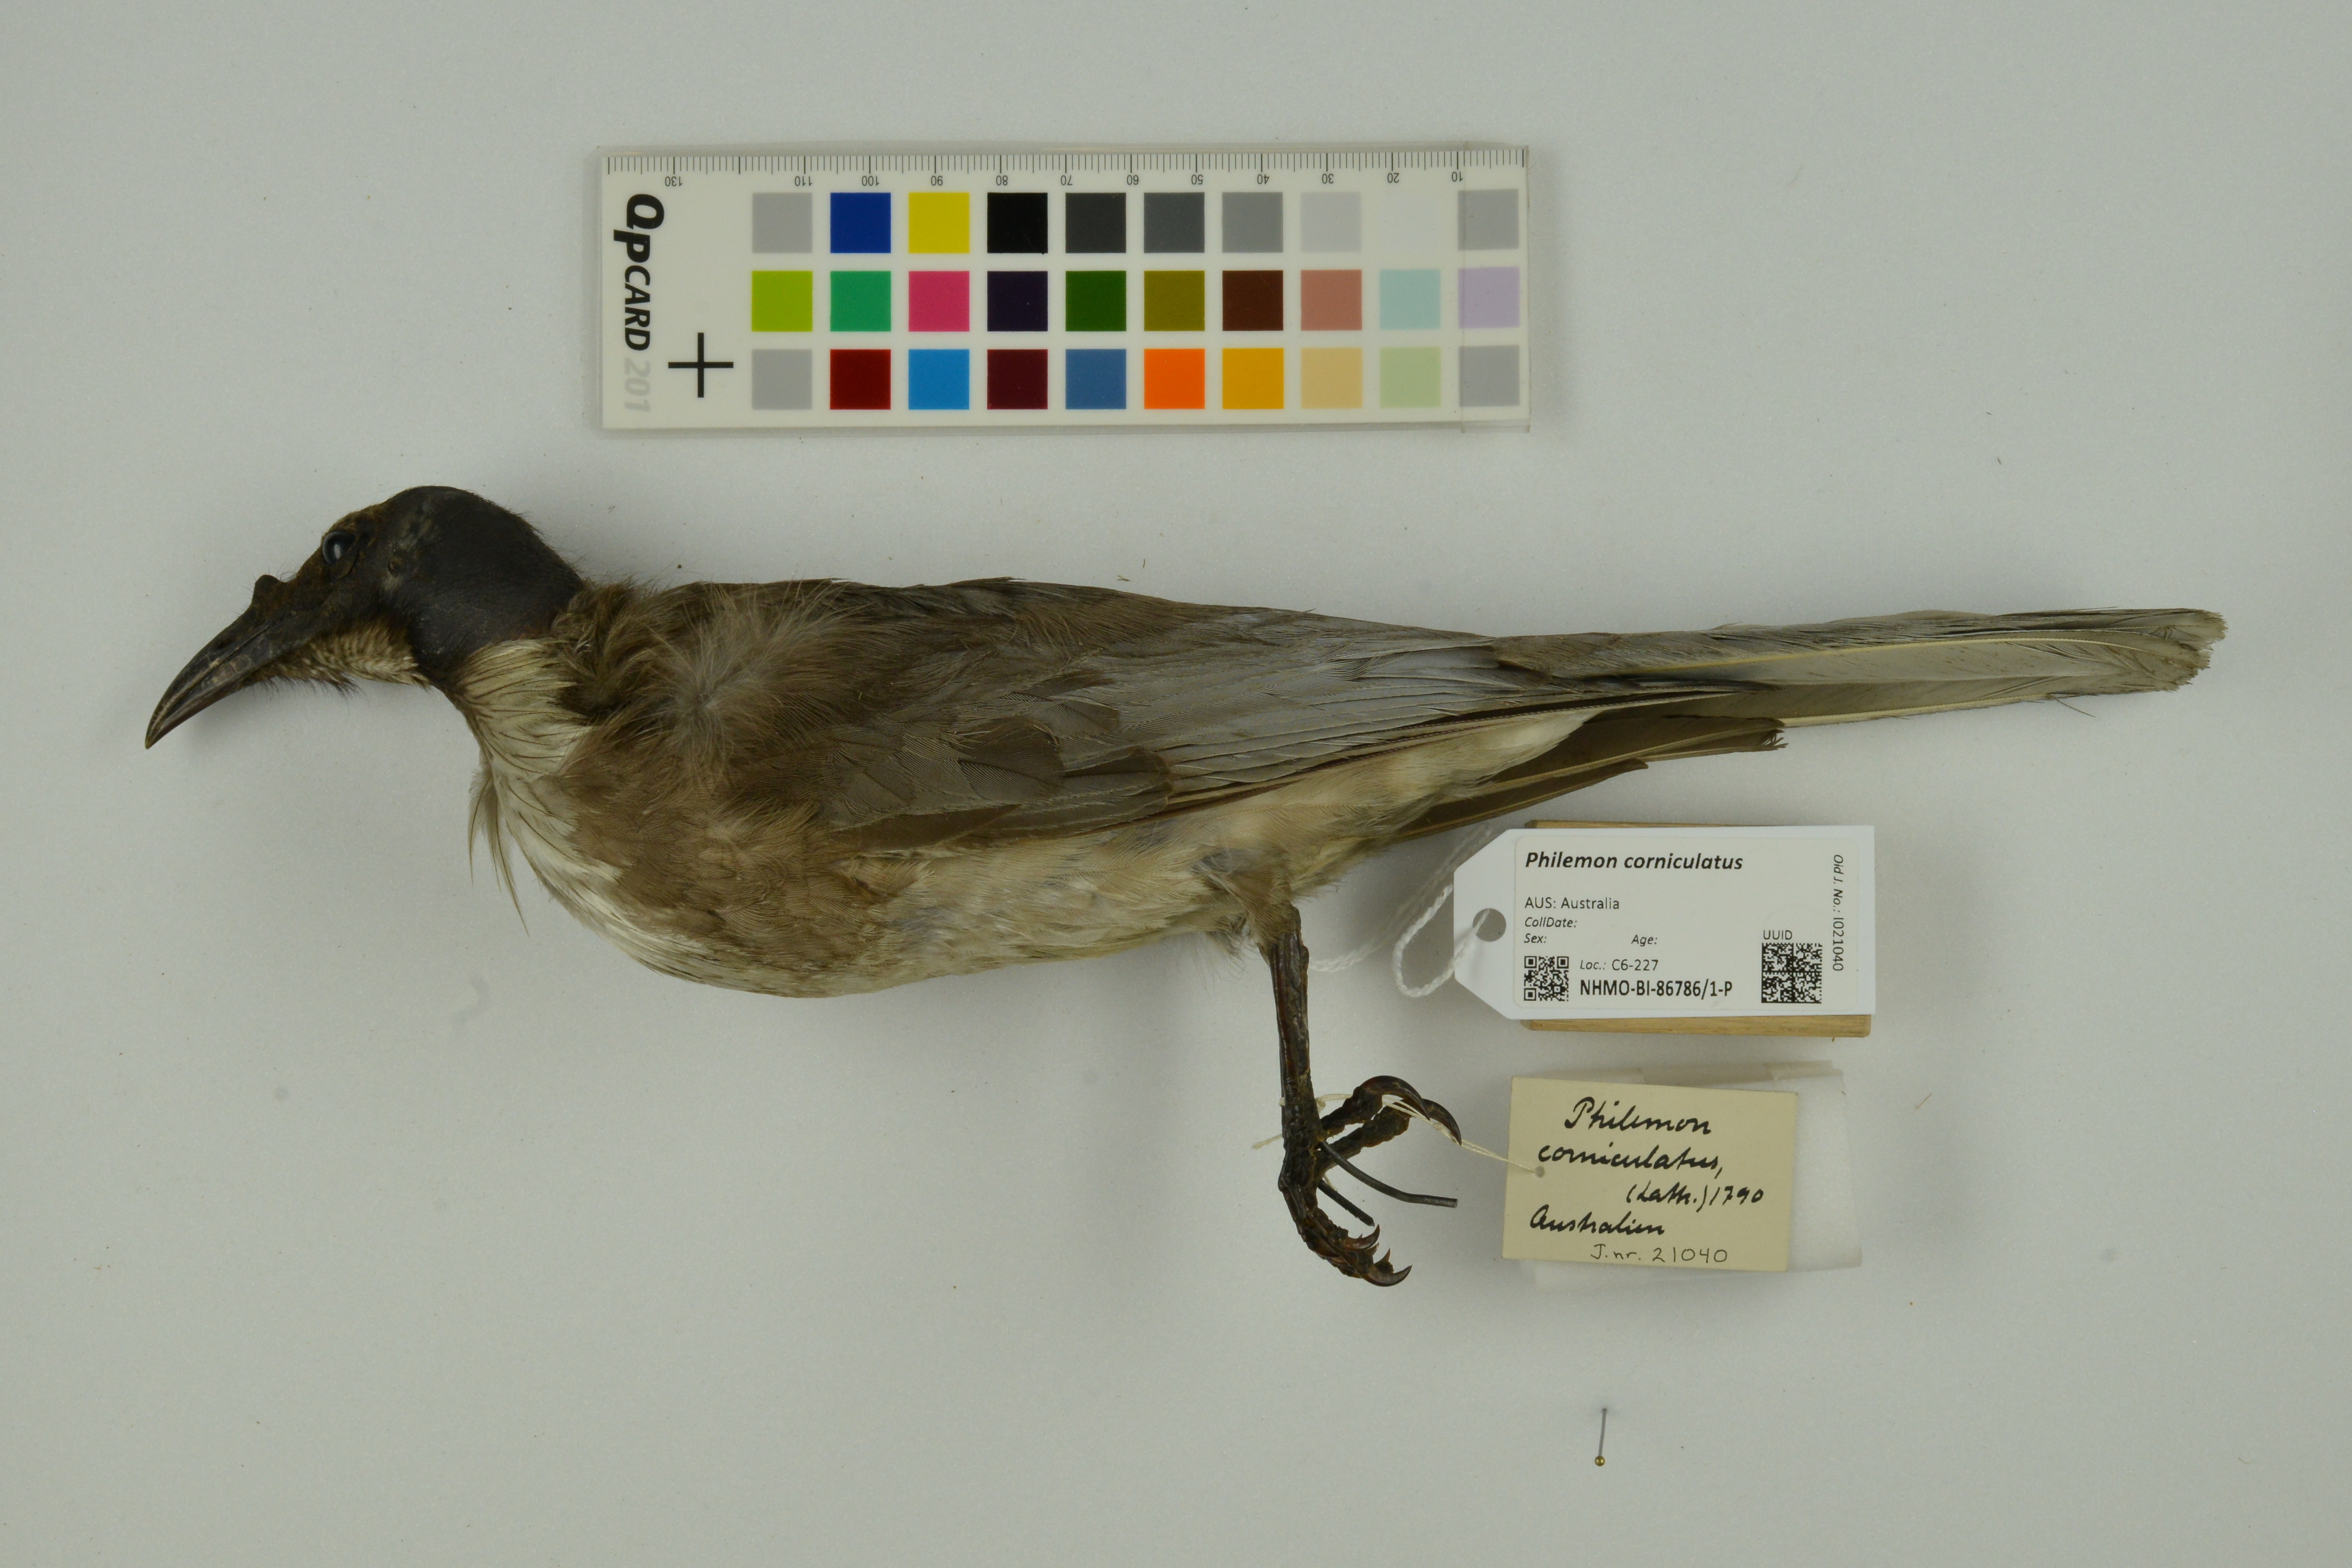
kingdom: Animalia
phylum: Chordata
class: Aves
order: Passeriformes
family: Meliphagidae
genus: Philemon
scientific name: Philemon corniculatus
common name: Noisy friarbird
